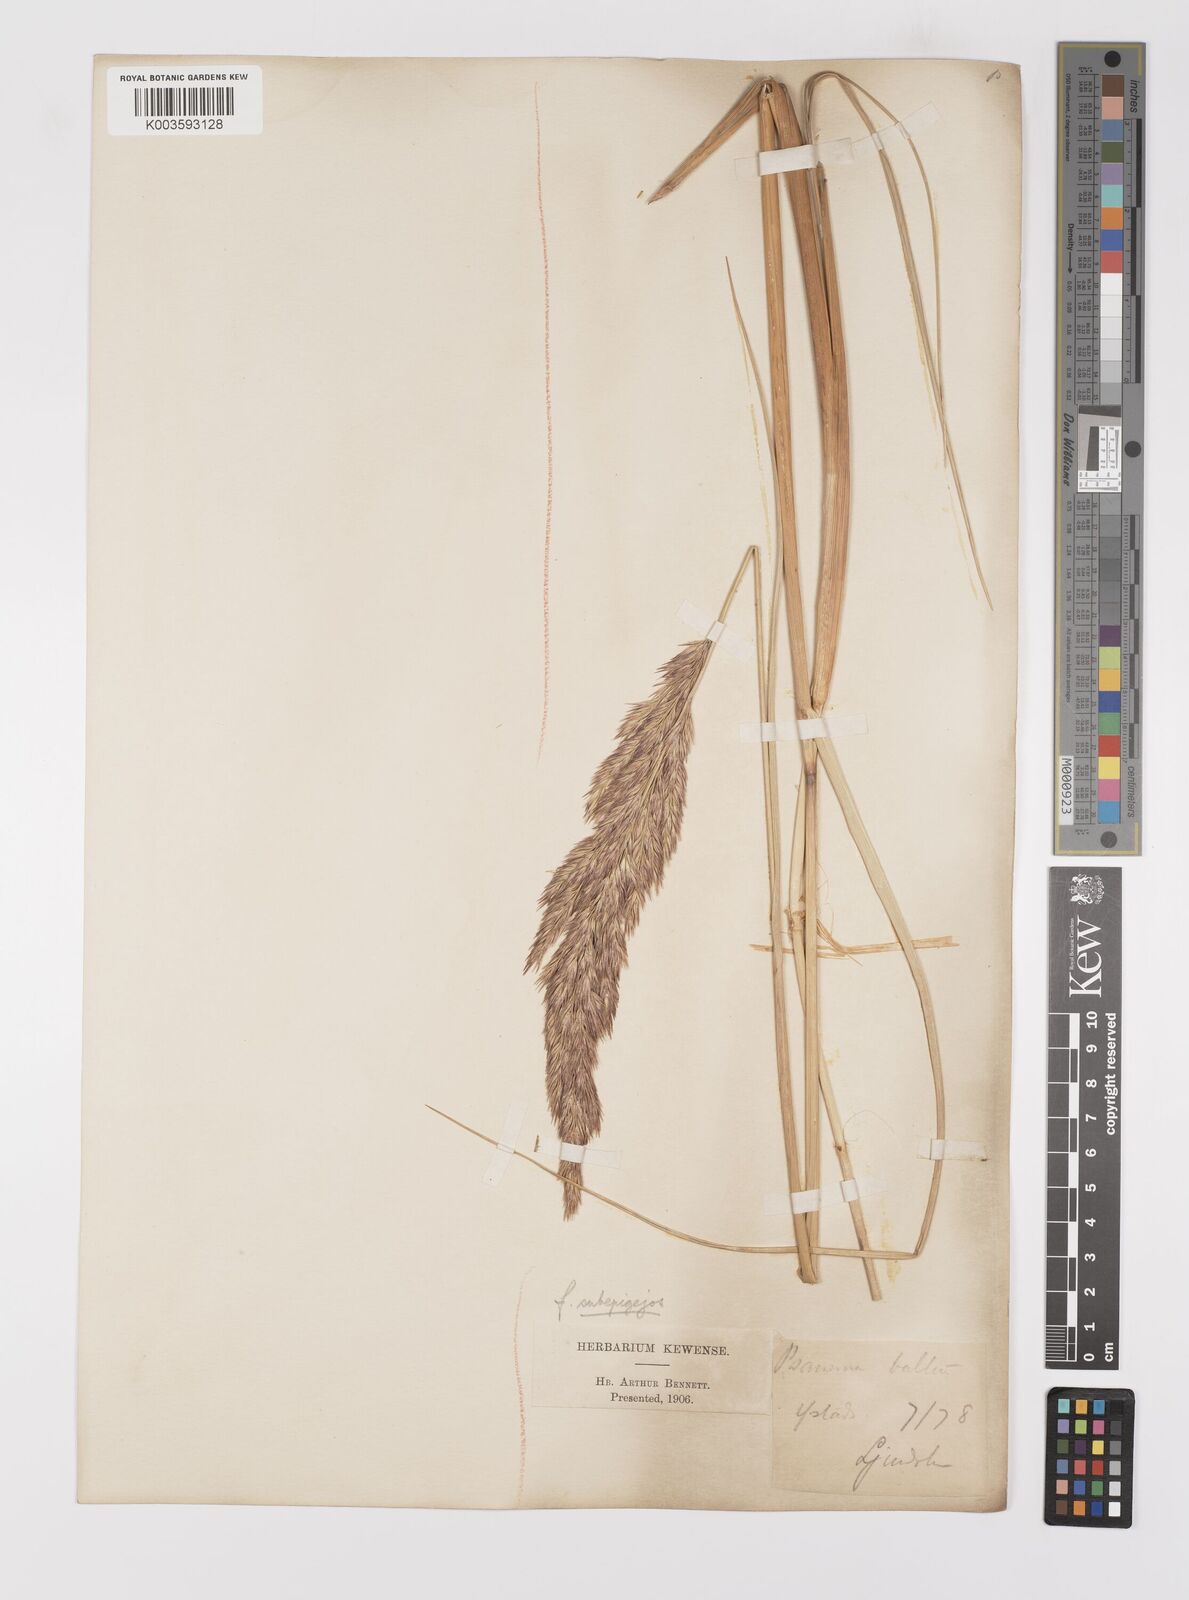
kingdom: Plantae
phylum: Tracheophyta
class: Liliopsida
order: Poales
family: Poaceae
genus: Calamagrostis
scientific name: Calamagrostis baltica
